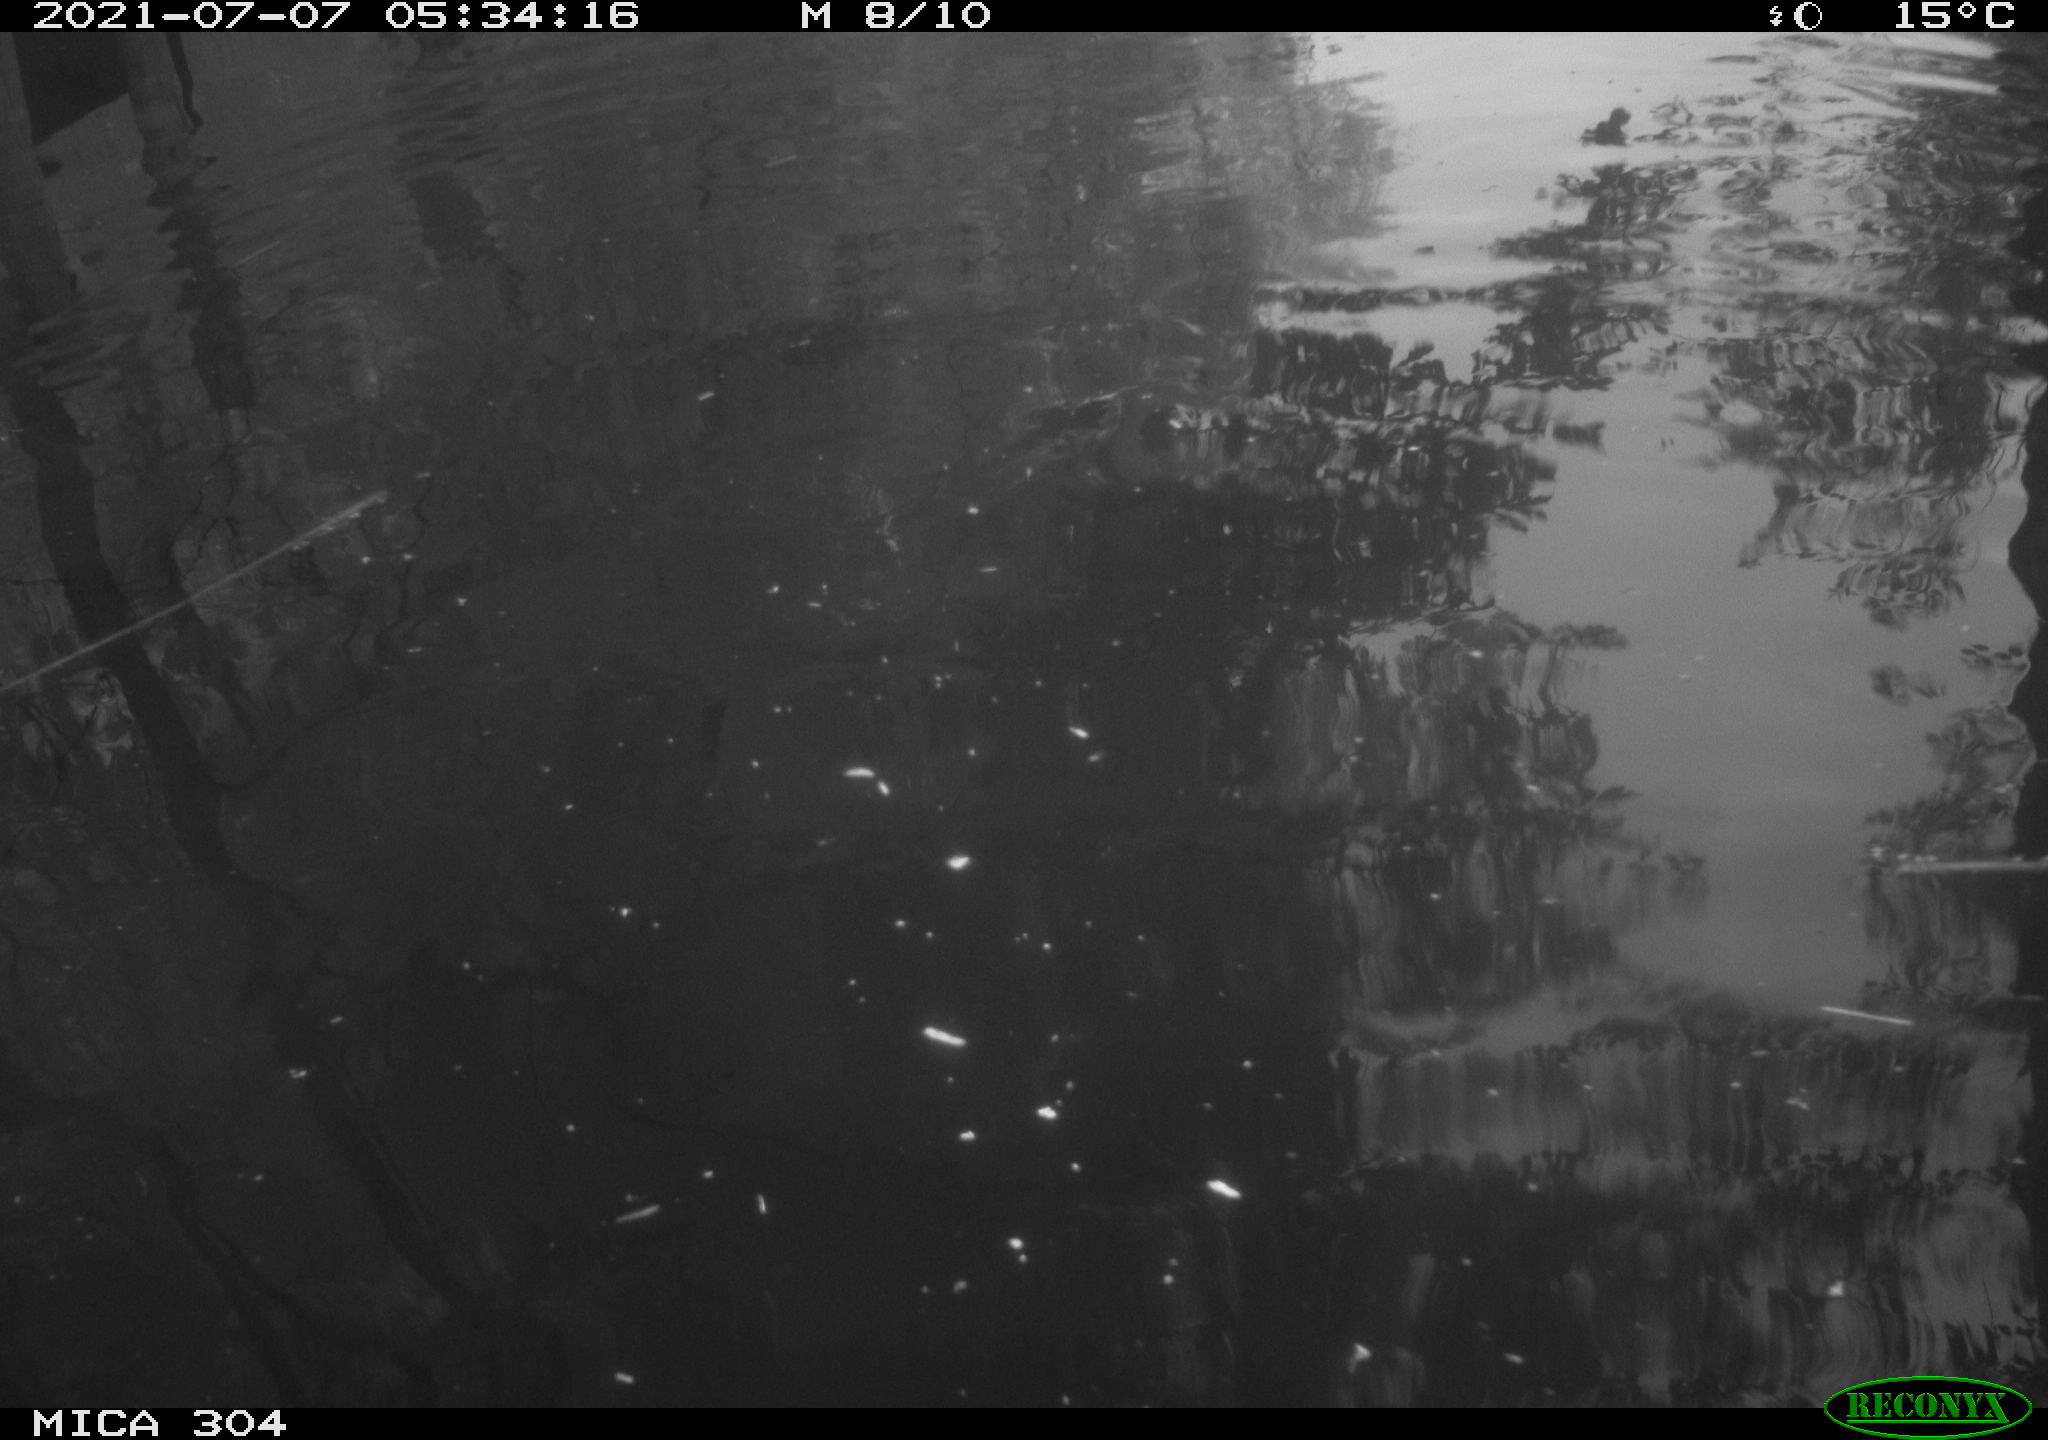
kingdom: Animalia
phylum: Chordata
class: Aves
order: Anseriformes
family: Anatidae
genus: Anas
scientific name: Anas platyrhynchos
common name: Mallard
